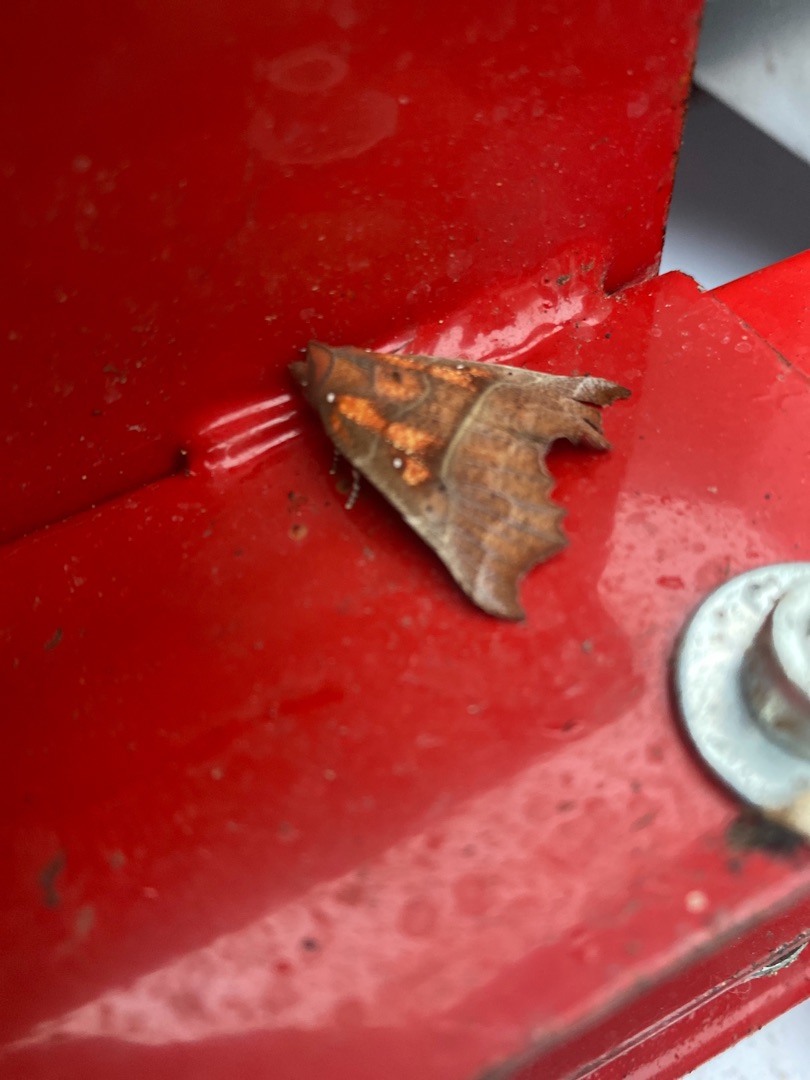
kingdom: Animalia
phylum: Arthropoda
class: Insecta
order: Lepidoptera
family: Erebidae
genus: Scoliopteryx
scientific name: Scoliopteryx libatrix
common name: Husmoderugle
